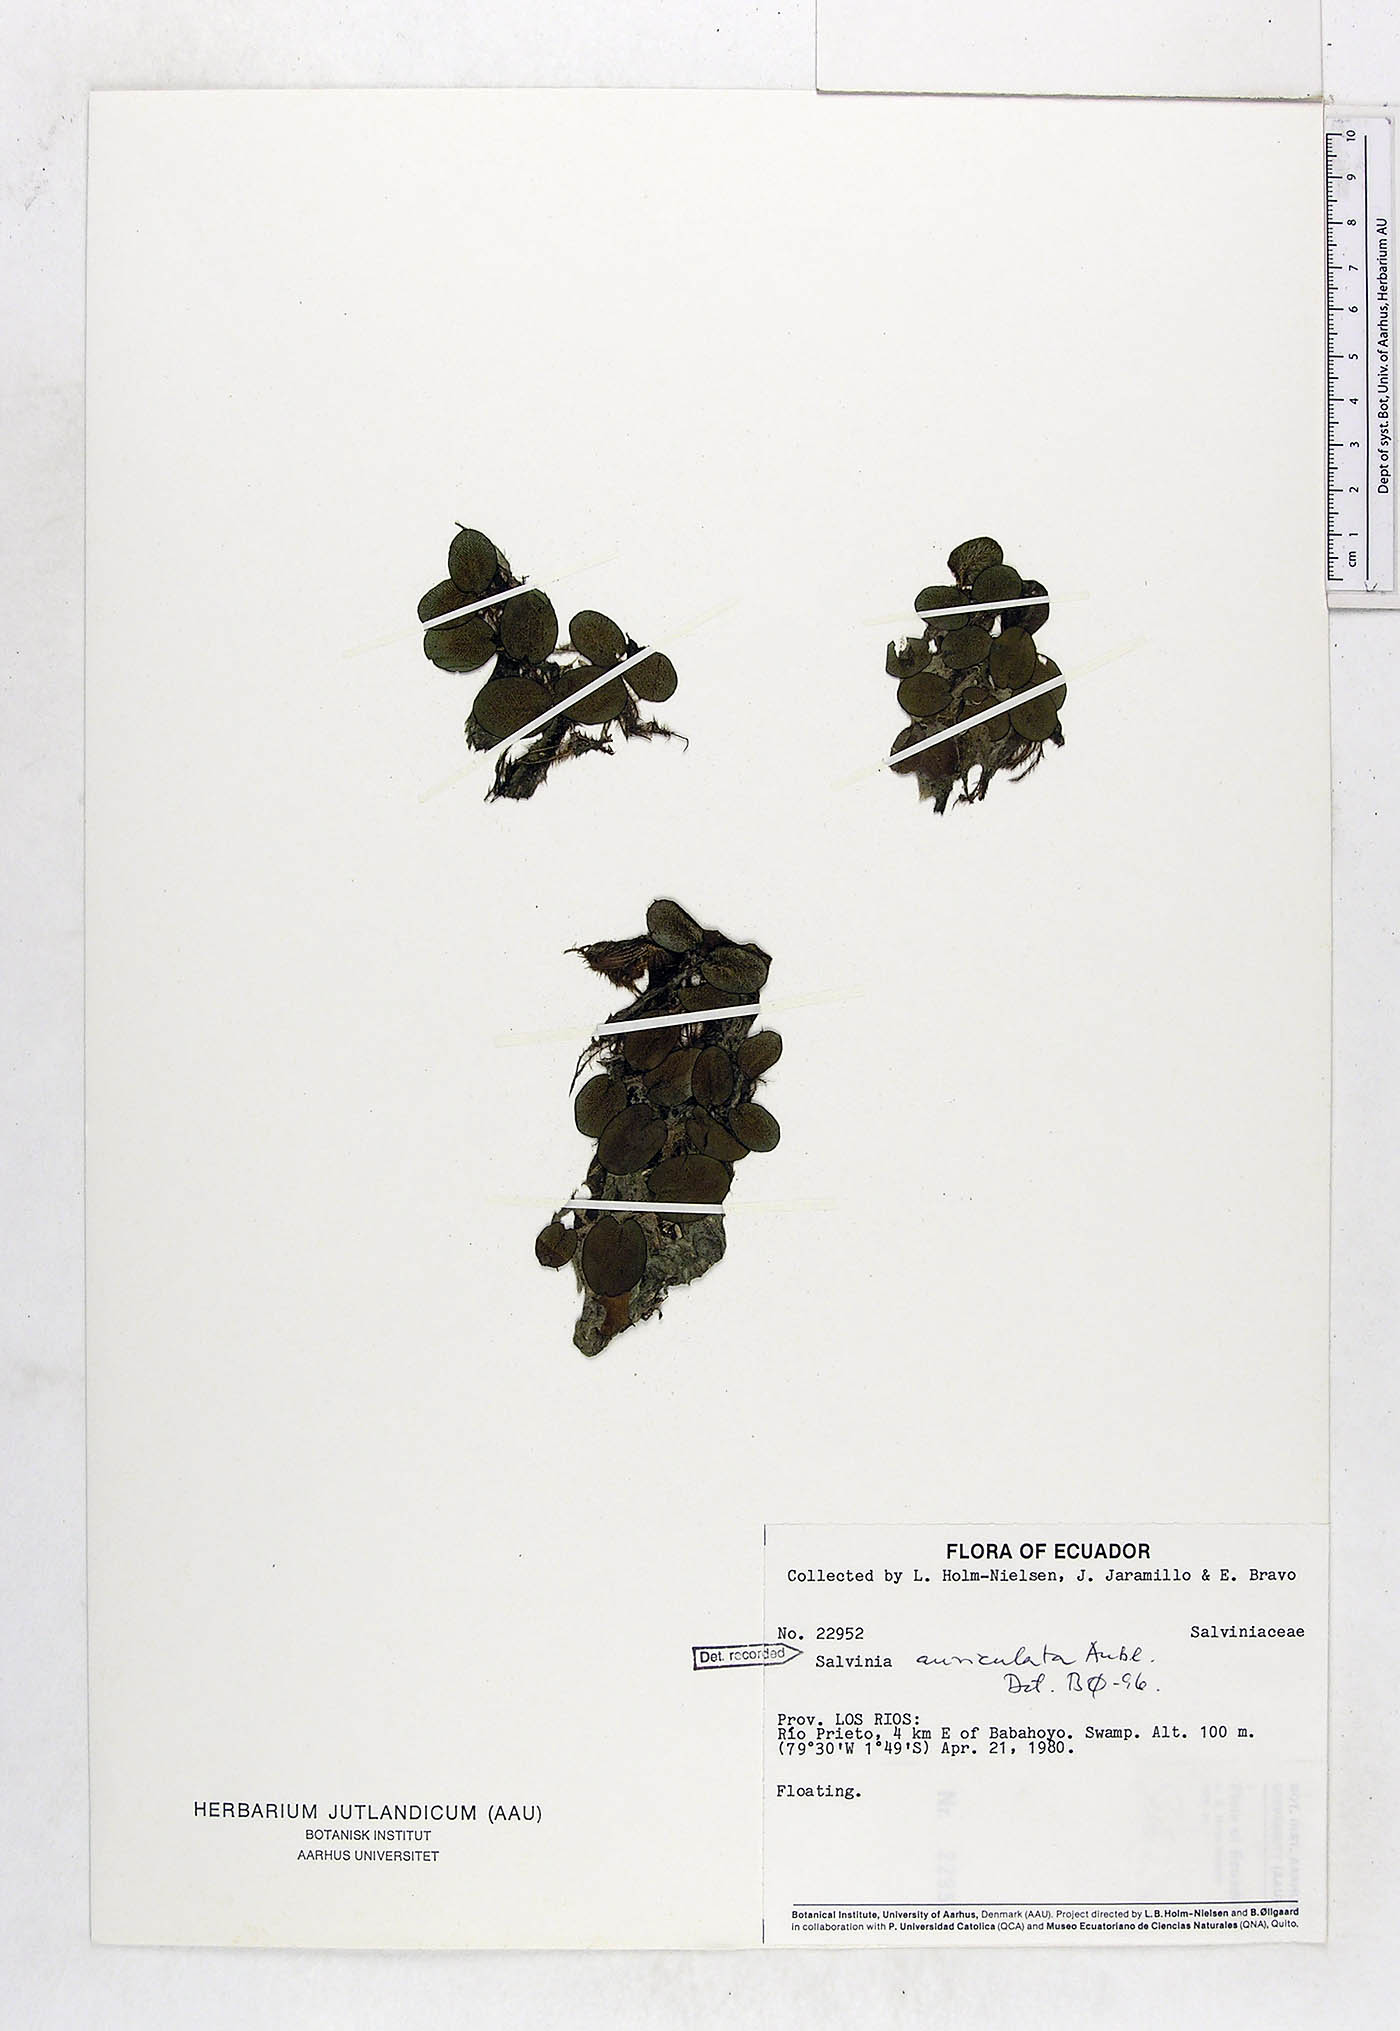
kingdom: Plantae
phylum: Tracheophyta
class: Polypodiopsida
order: Salviniales
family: Salviniaceae
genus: Salvinia
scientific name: Salvinia auriculata
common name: African payal
